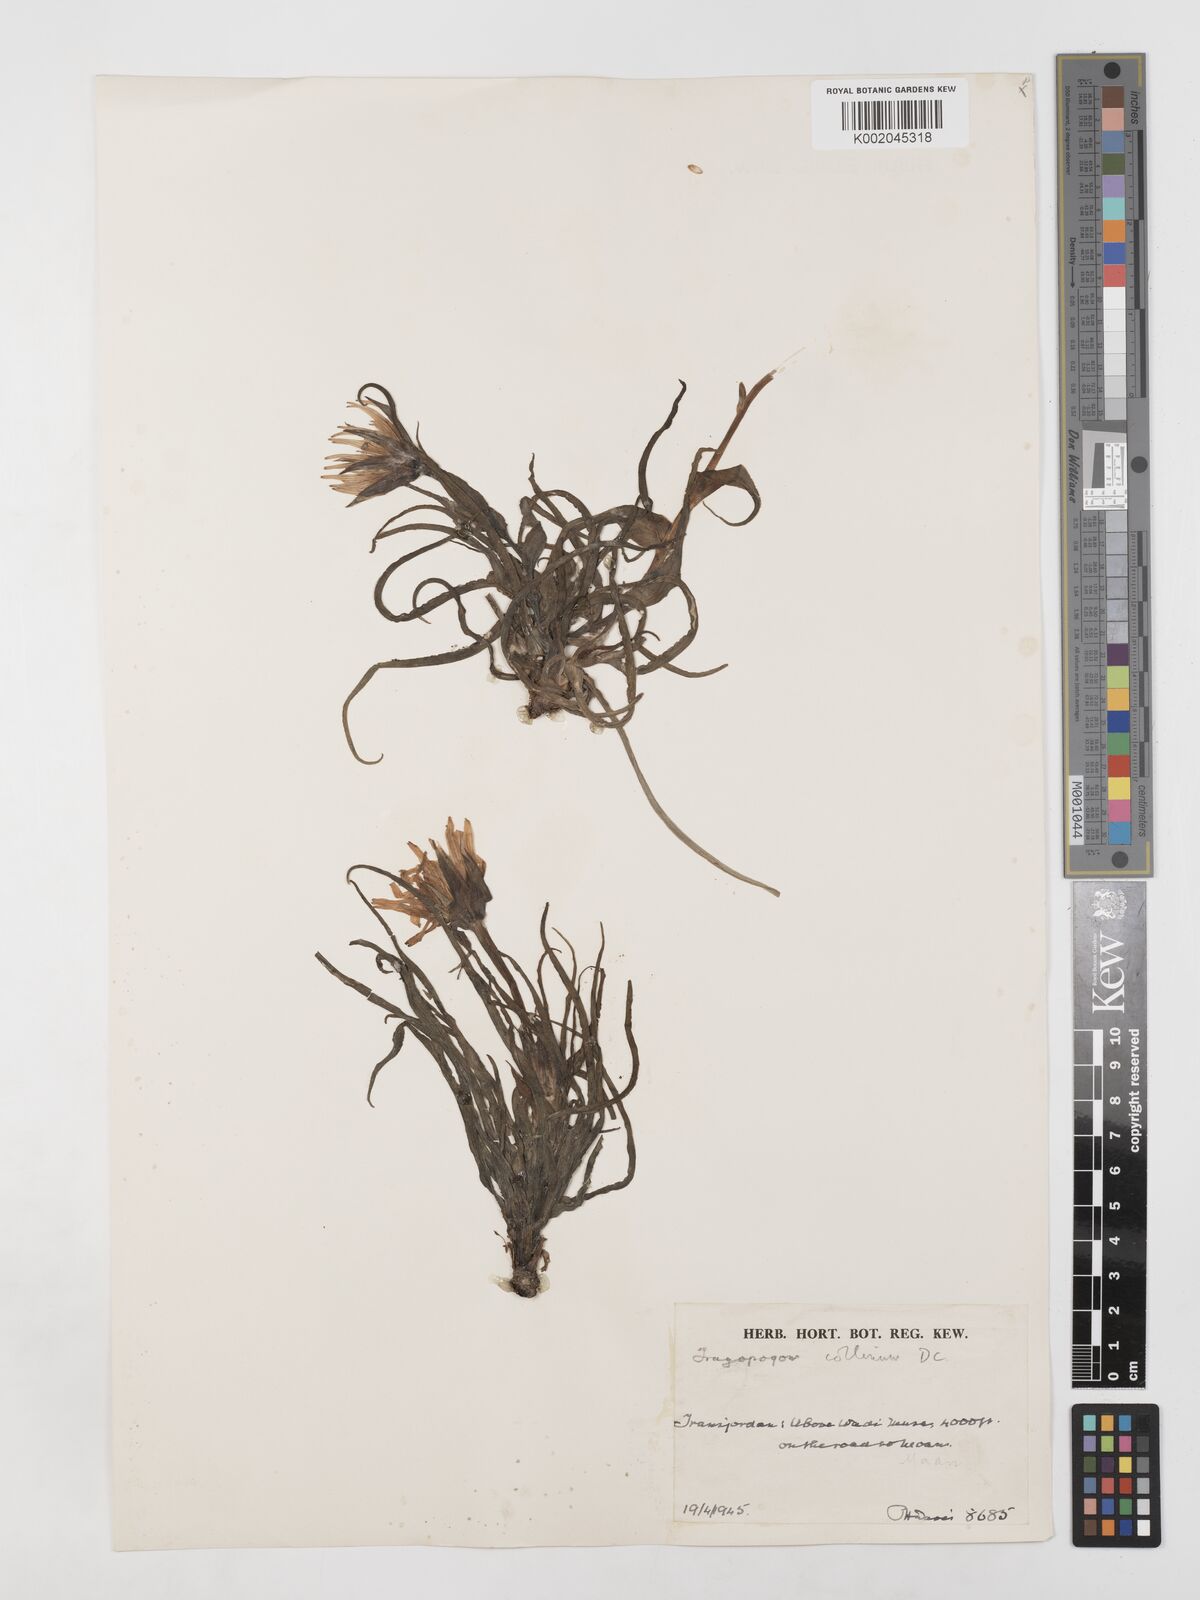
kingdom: Plantae
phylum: Tracheophyta
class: Magnoliopsida
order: Asterales
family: Asteraceae
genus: Tragopogon
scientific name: Tragopogon coloratus
